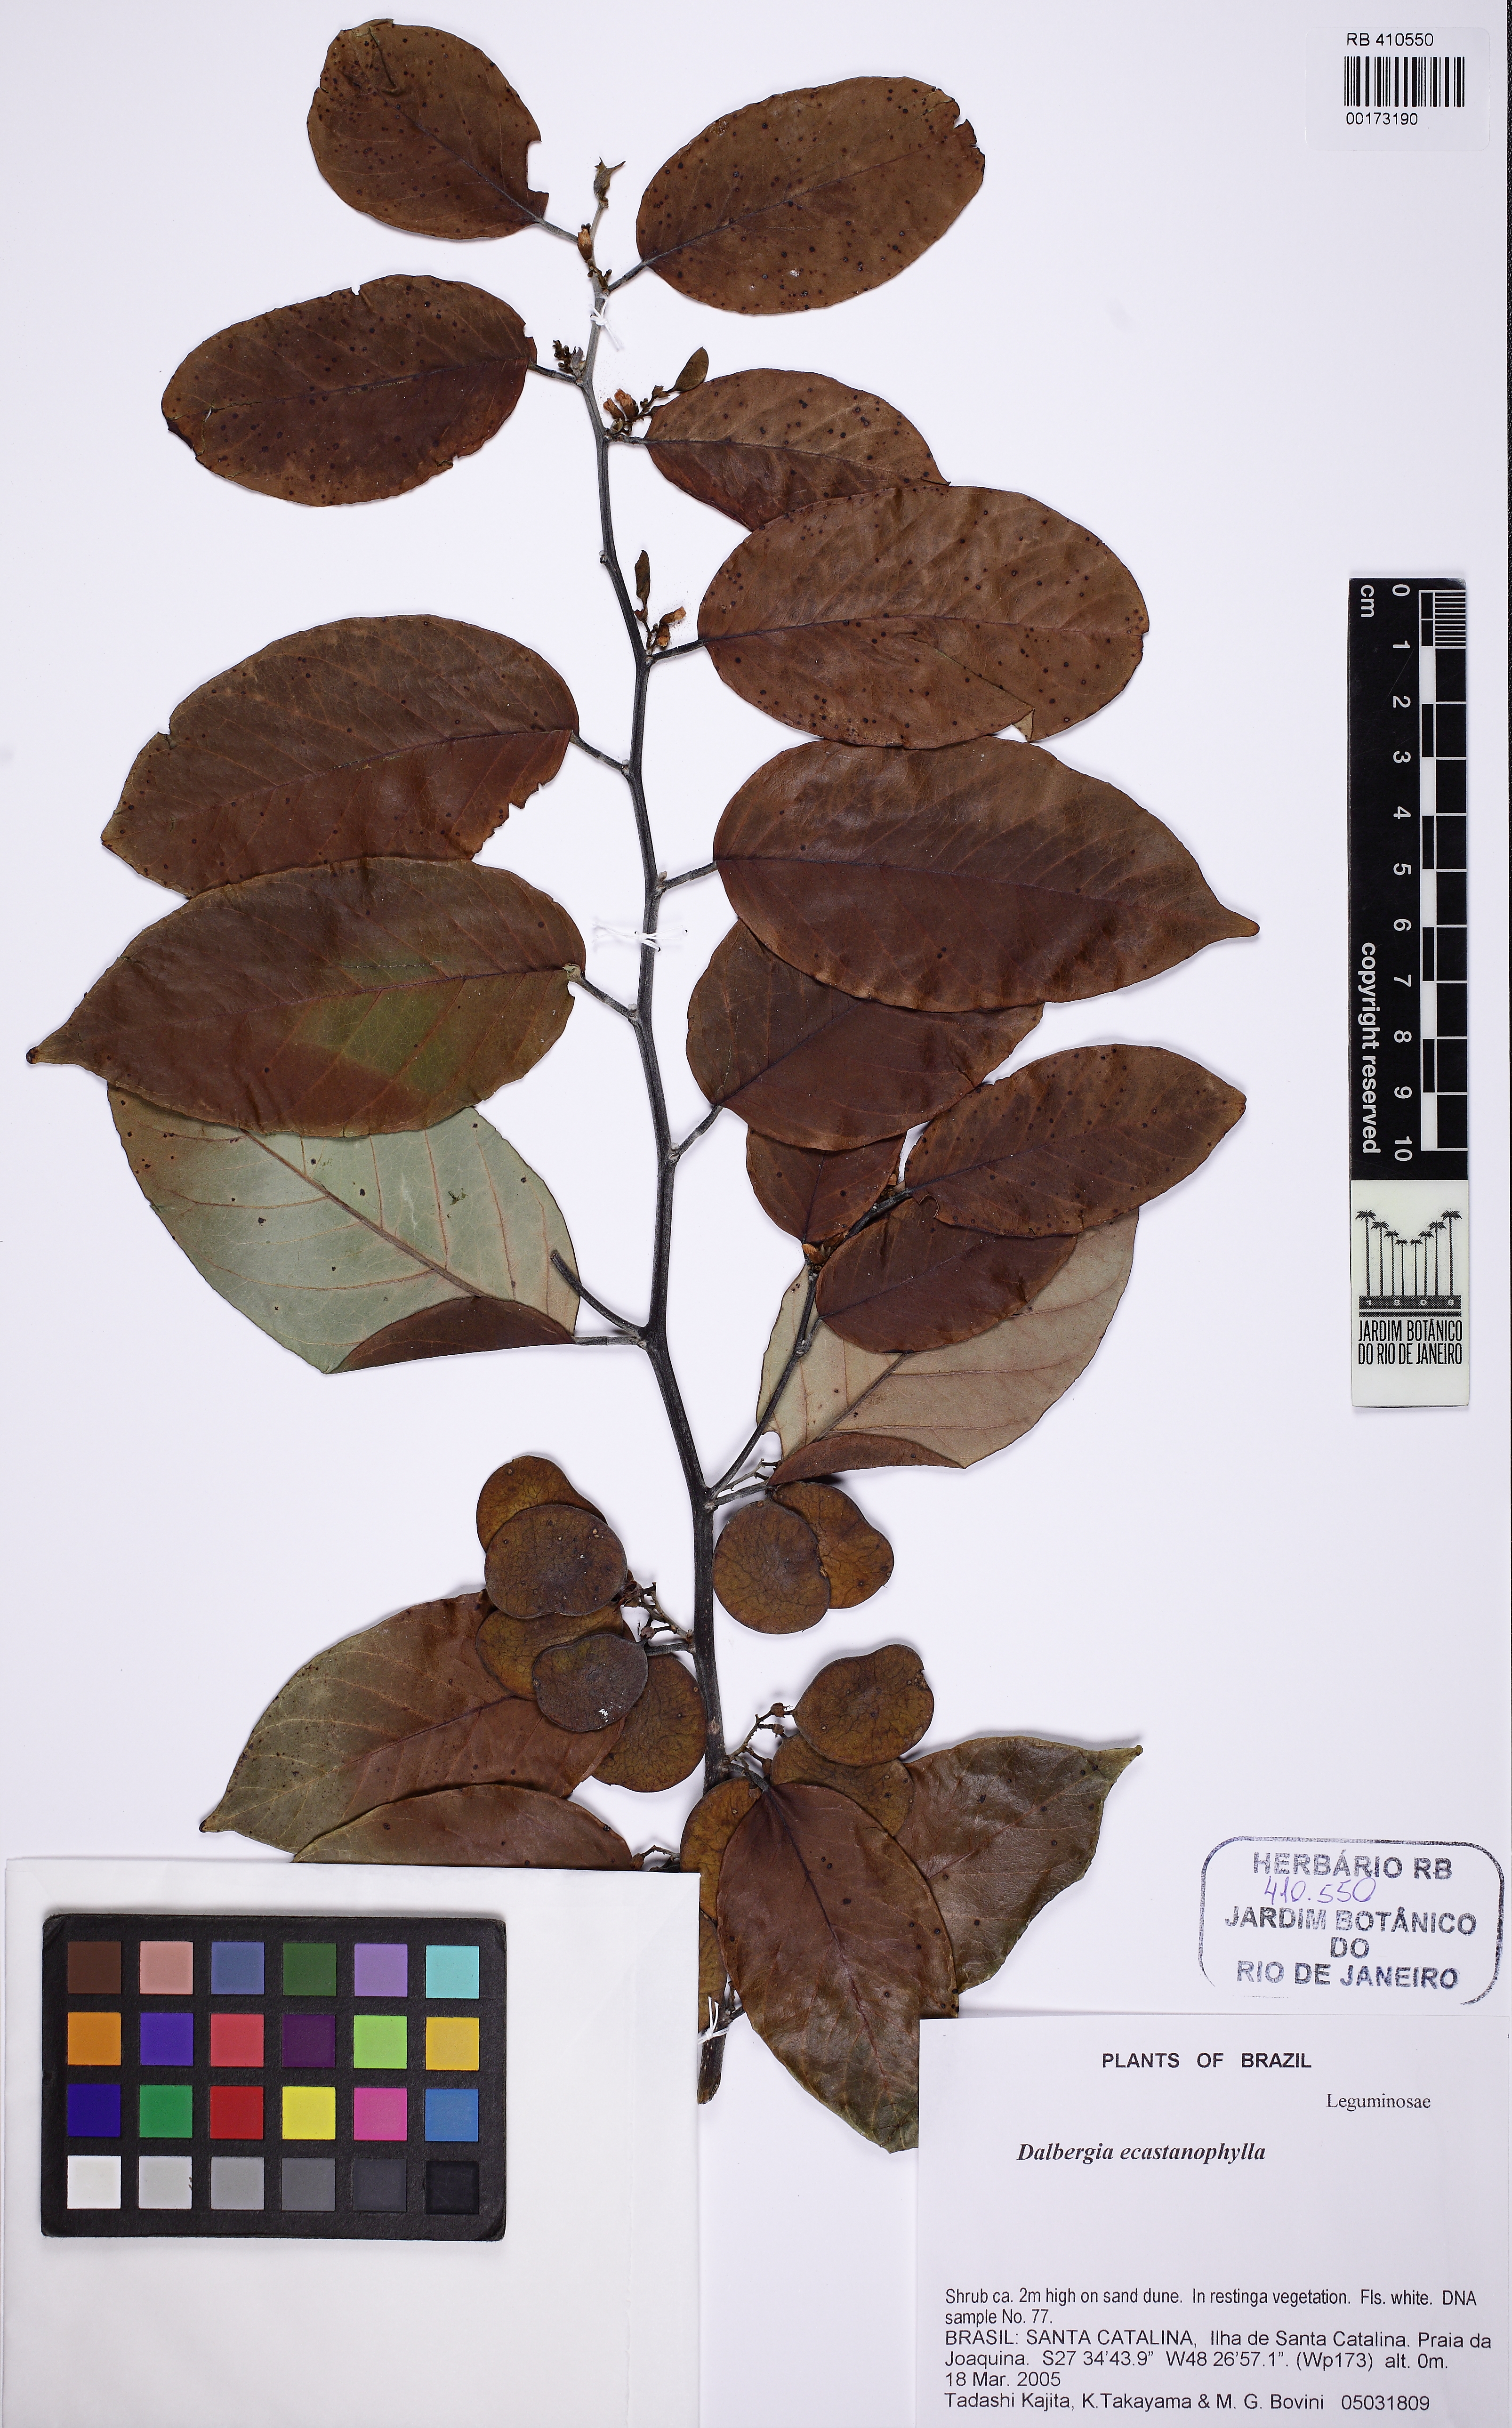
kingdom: Plantae
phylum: Tracheophyta
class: Magnoliopsida
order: Fabales
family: Fabaceae
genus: Dalbergia
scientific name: Dalbergia ecastaphyllum
